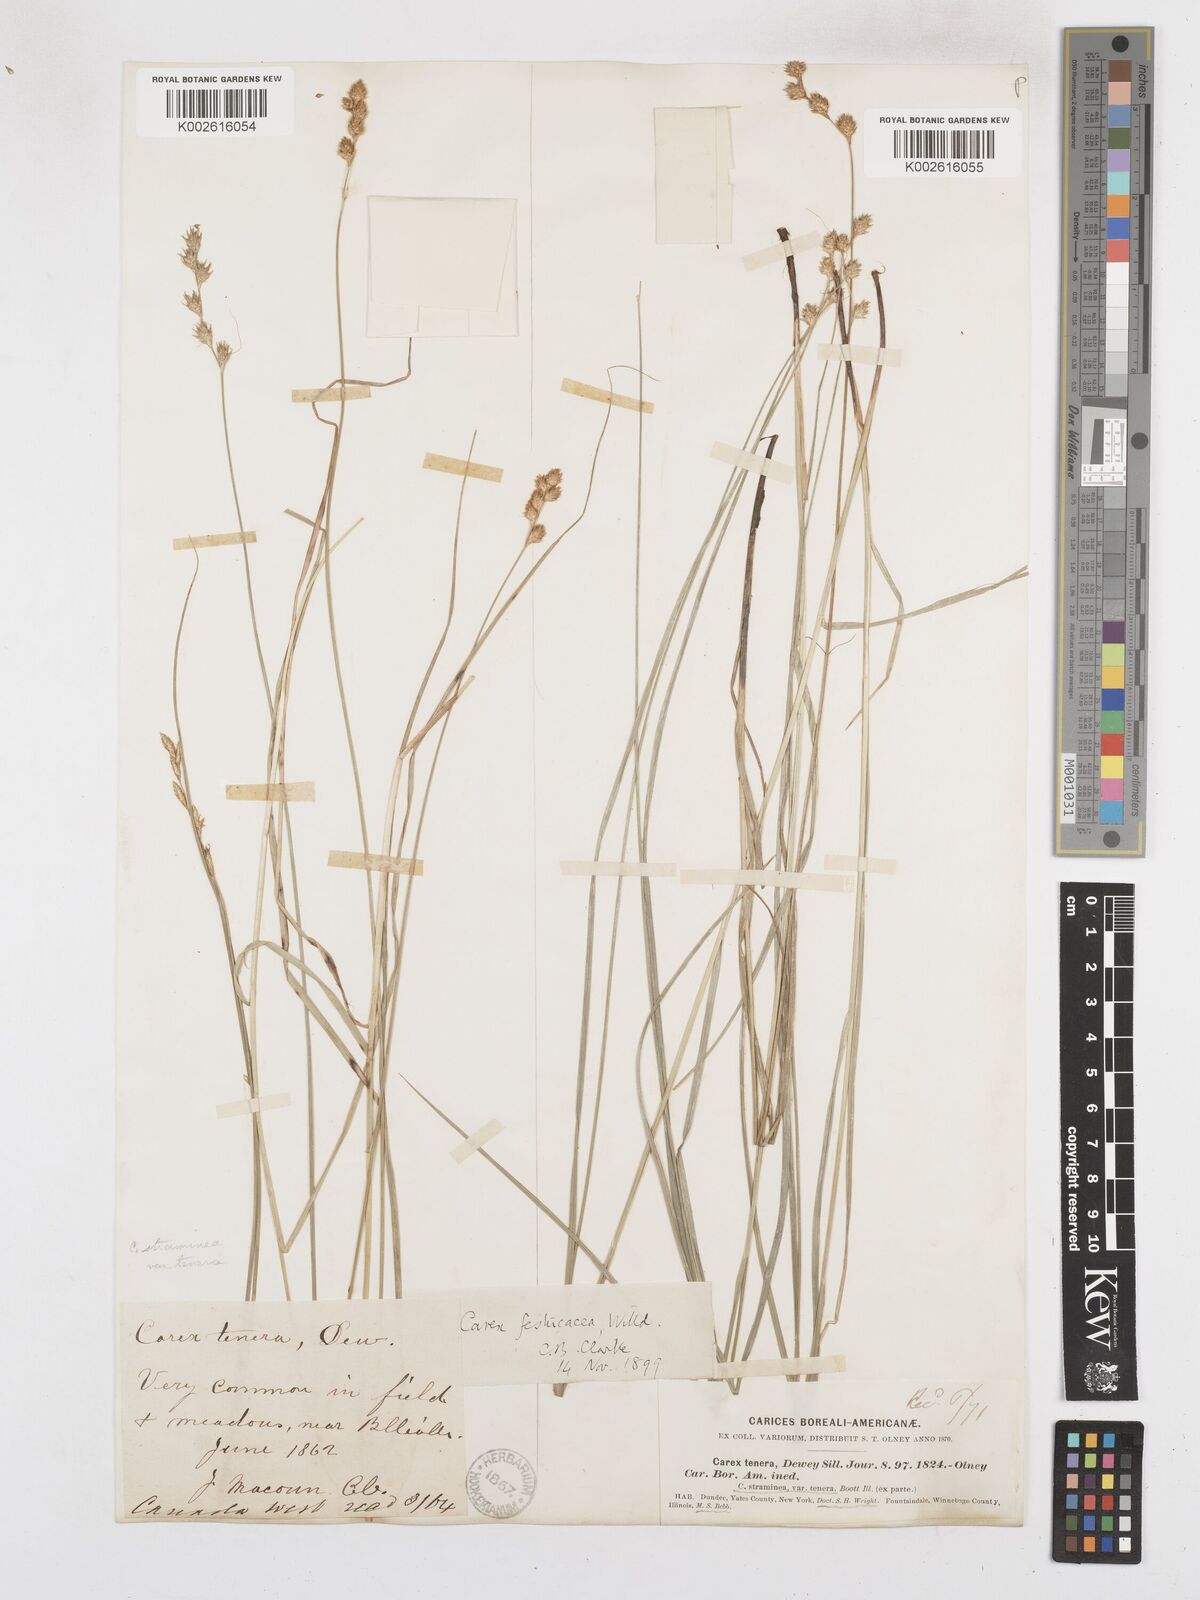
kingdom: Plantae
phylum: Tracheophyta
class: Liliopsida
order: Poales
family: Cyperaceae
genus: Carex
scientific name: Carex festucacea
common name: Fescue oval sedge
